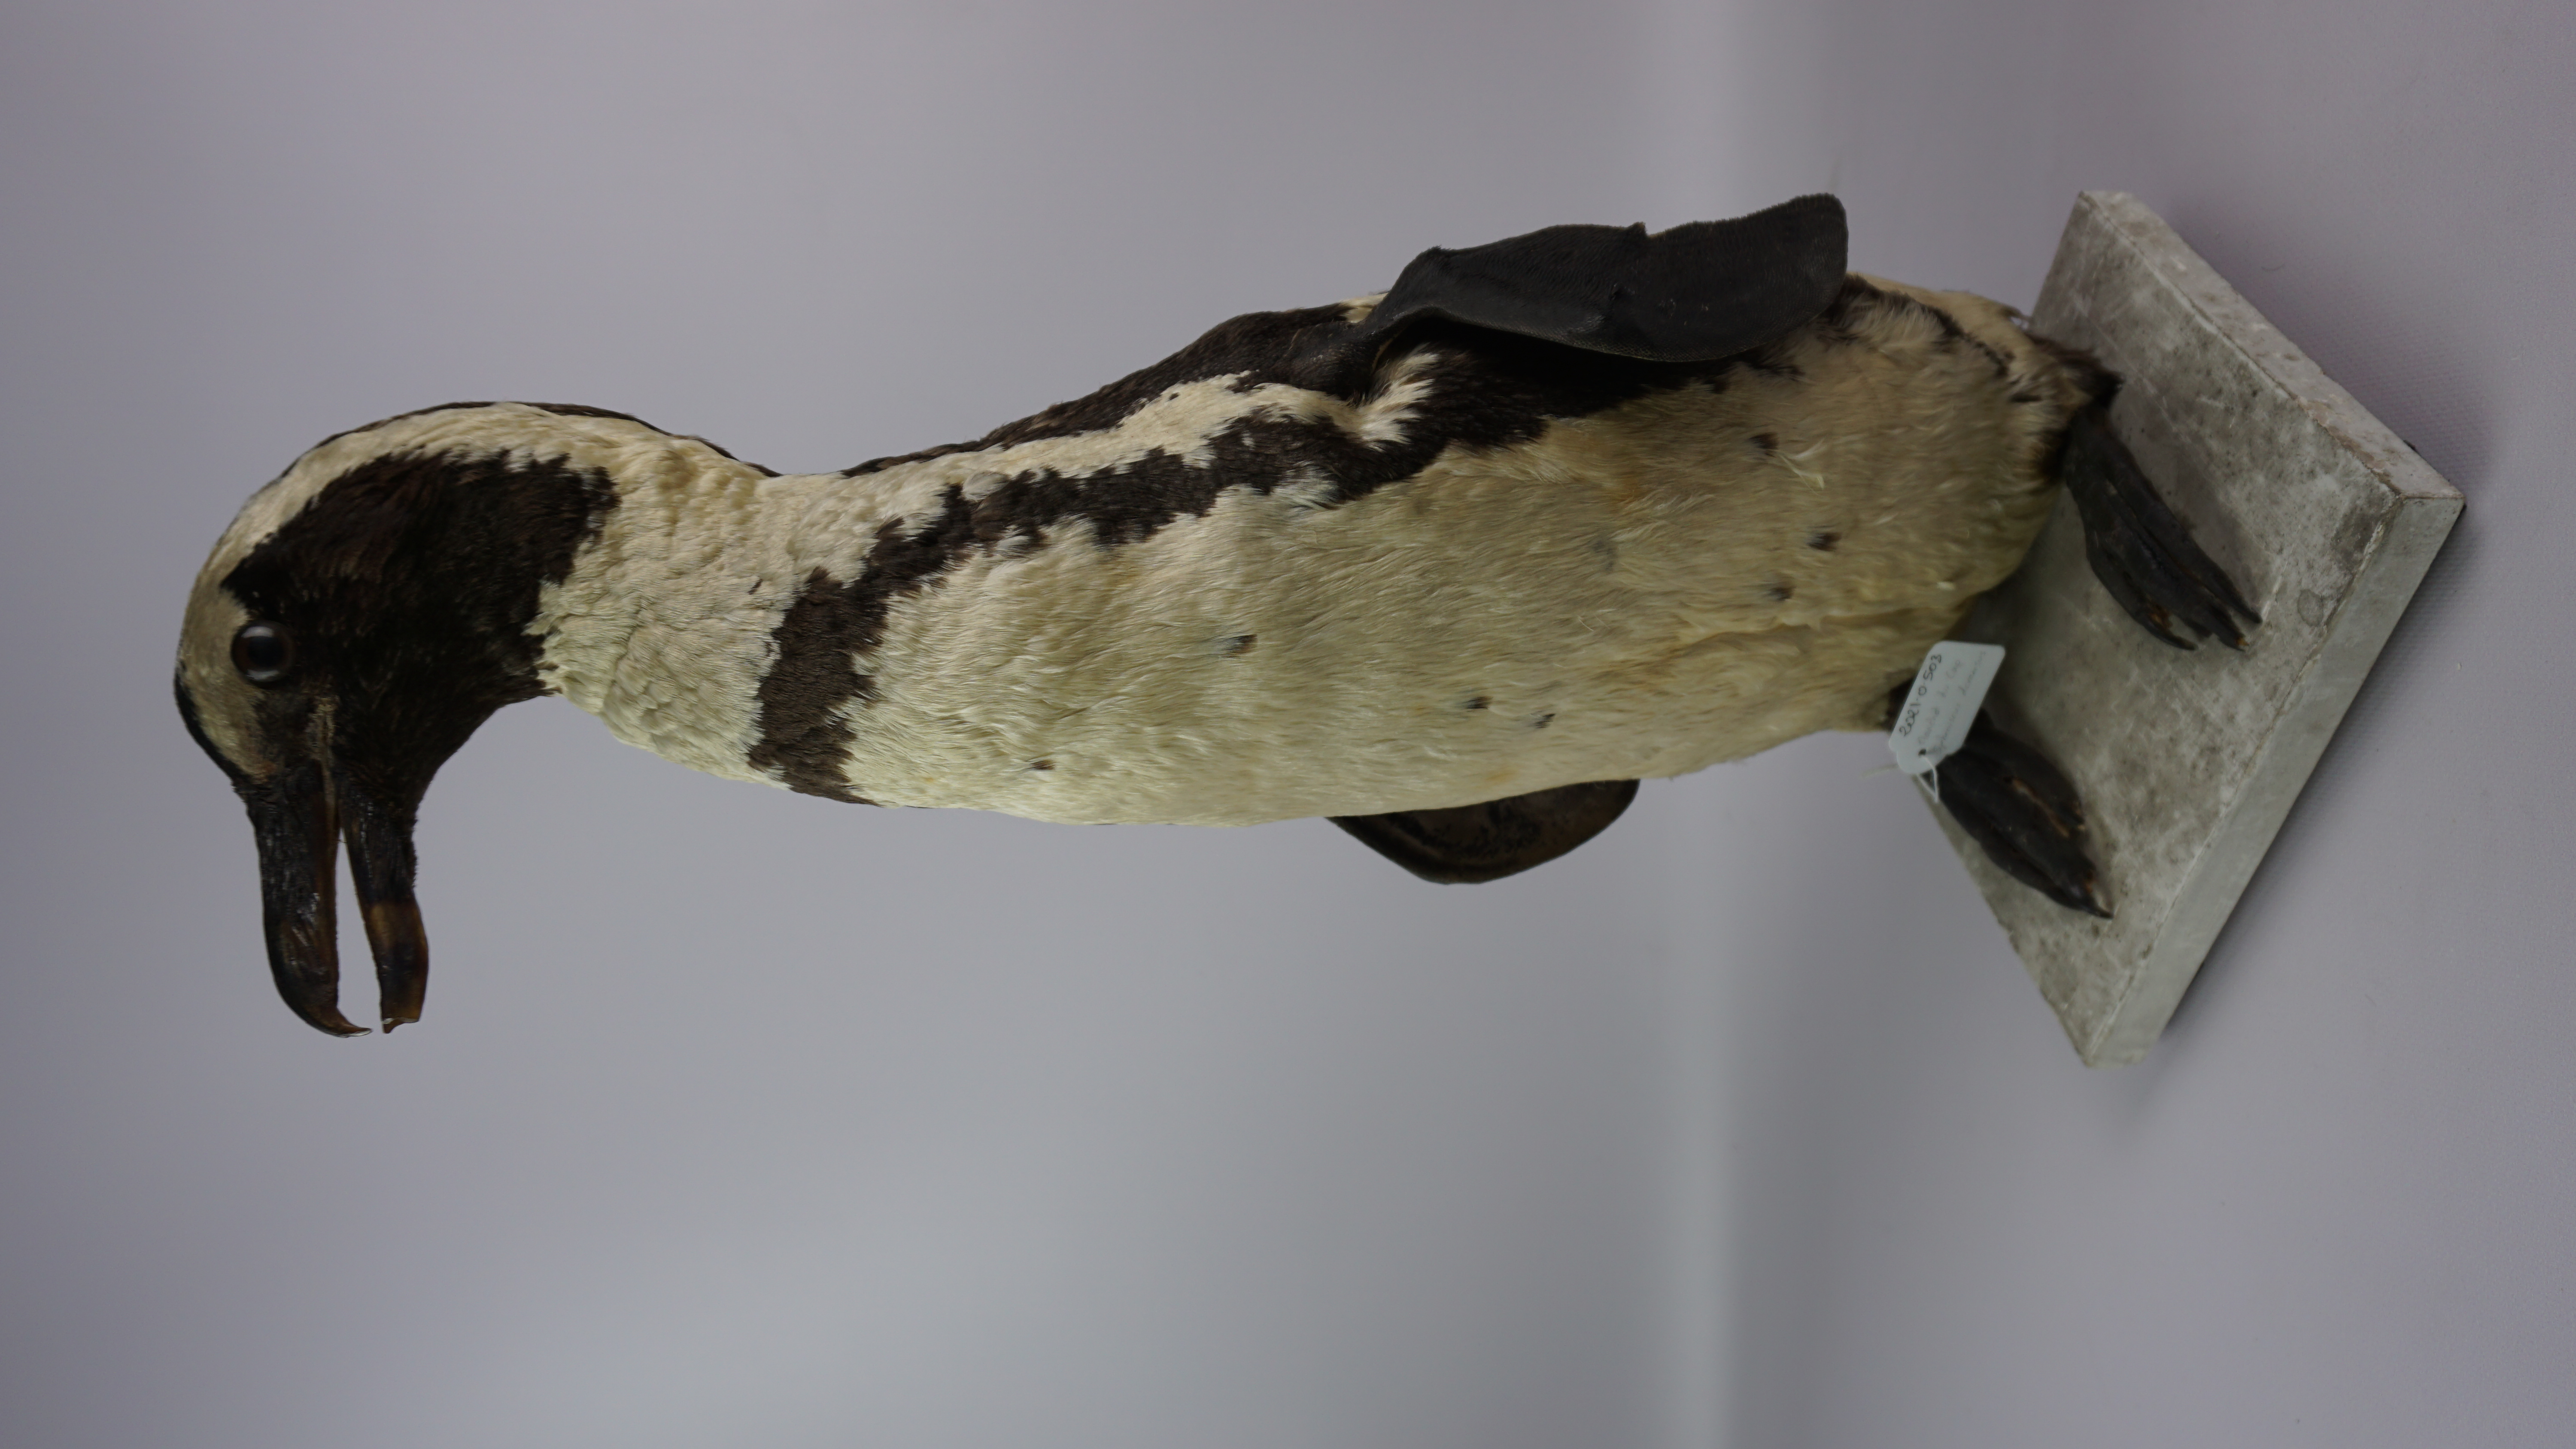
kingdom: Animalia
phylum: Chordata
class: Aves
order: Sphenisciformes
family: Spheniscidae
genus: Spheniscus
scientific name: Spheniscus demersus
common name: African penguin
